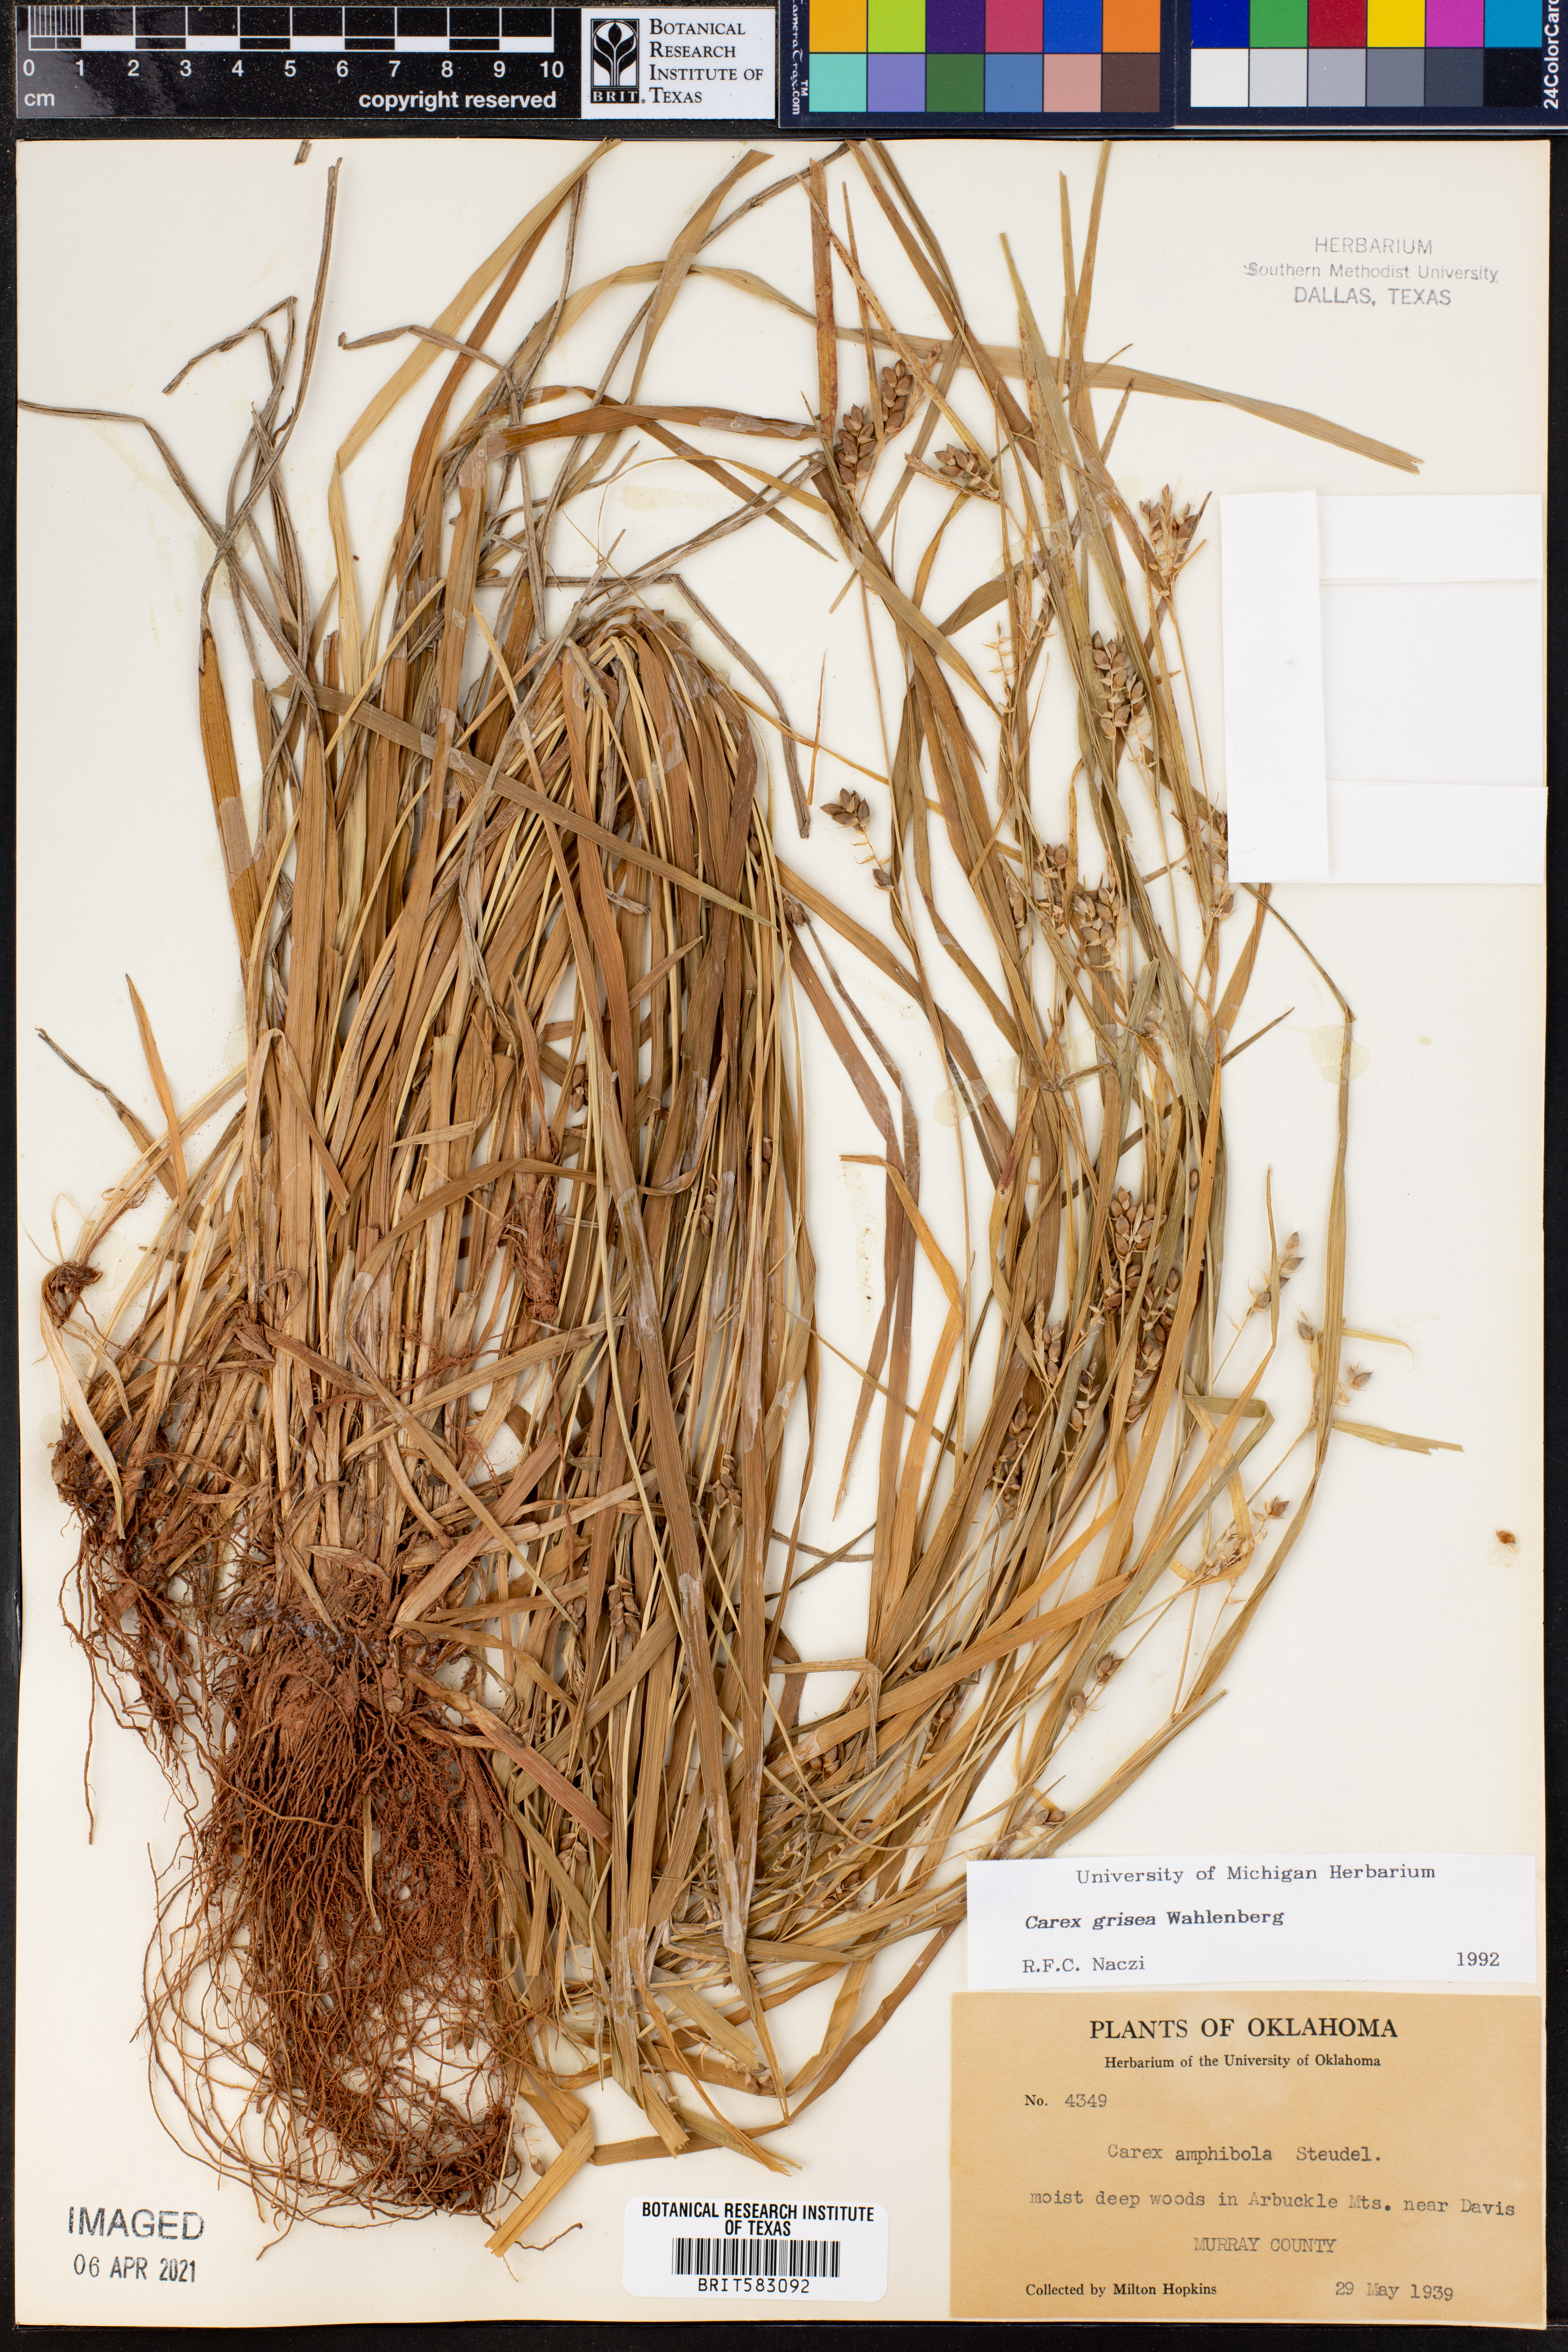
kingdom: Plantae
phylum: Tracheophyta
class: Liliopsida
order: Poales
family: Cyperaceae
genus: Carex
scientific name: Carex grisea
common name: Eastern narrow-leaved sedge
